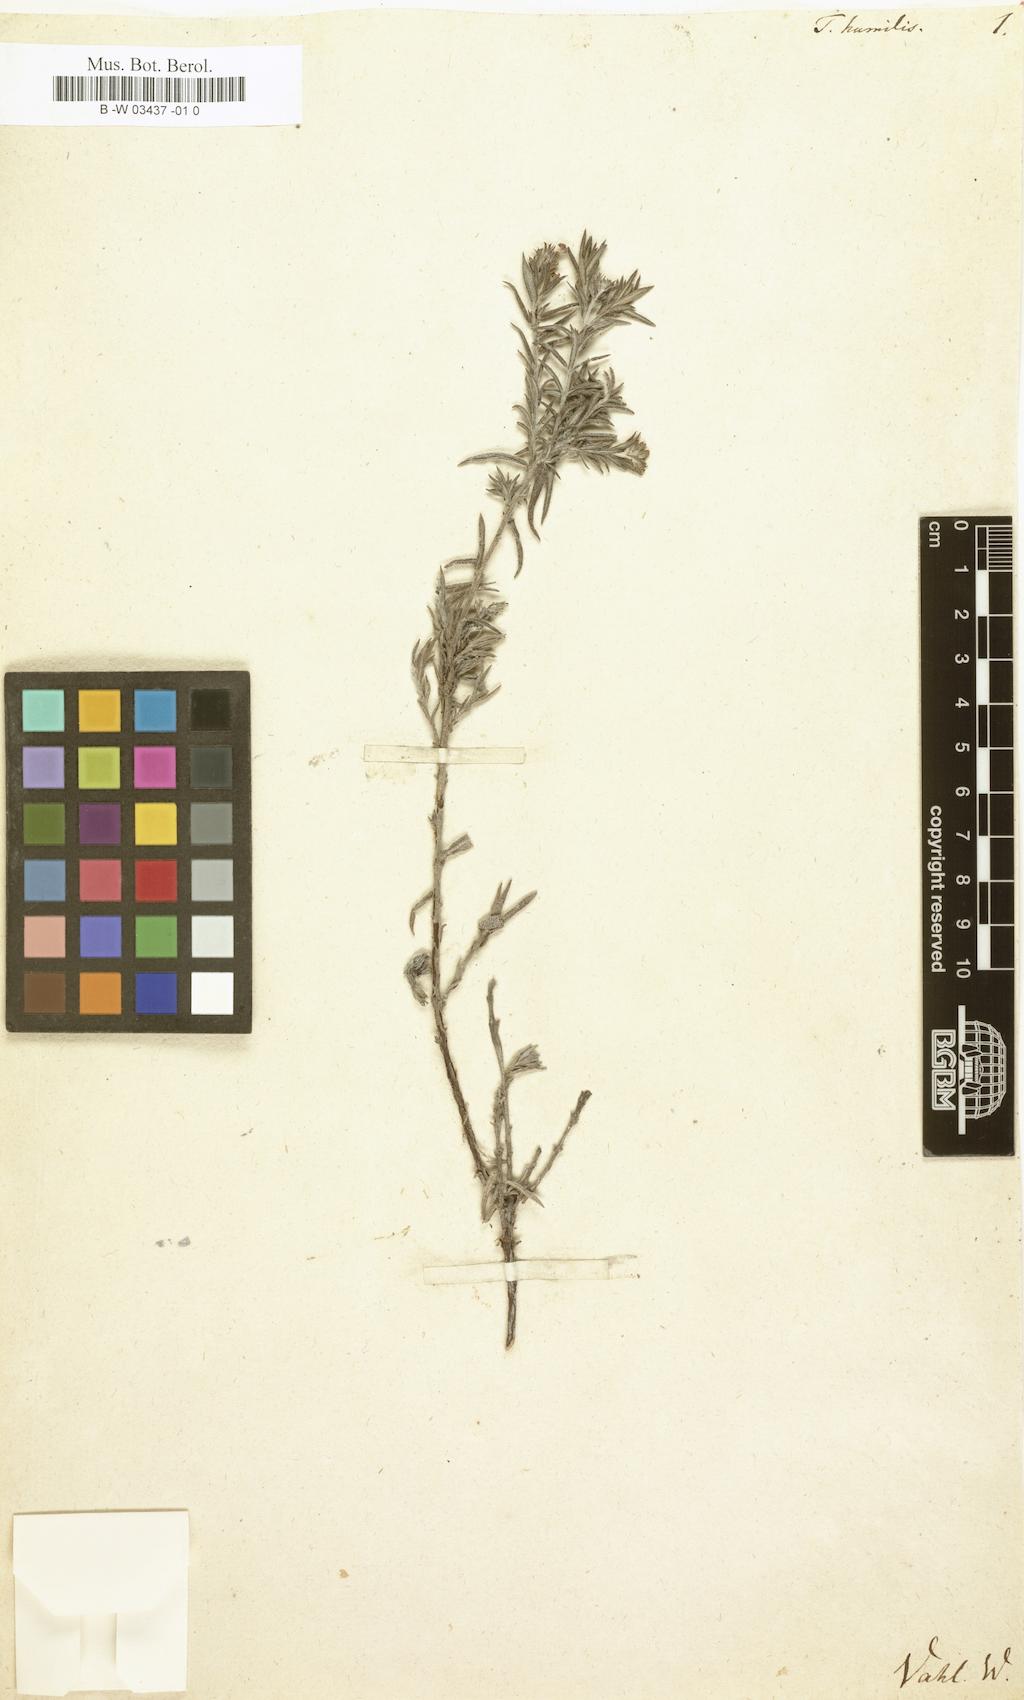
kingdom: Plantae
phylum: Tracheophyta
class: Magnoliopsida
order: Boraginales
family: Heliotropiaceae
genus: Euploca
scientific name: Euploca humilis
